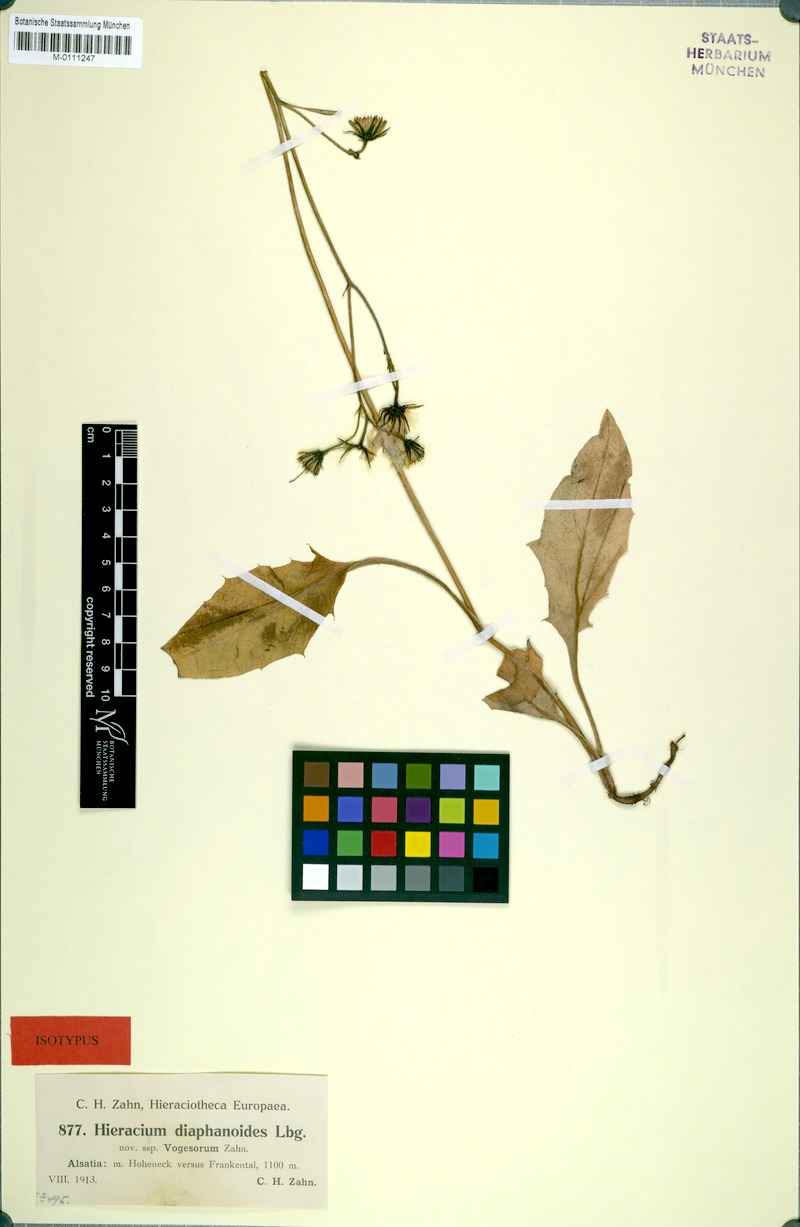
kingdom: Plantae
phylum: Tracheophyta
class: Magnoliopsida
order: Asterales
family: Asteraceae
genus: Hieracium
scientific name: Hieracium diaphanoides
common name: Fine-bracted hawkweed
